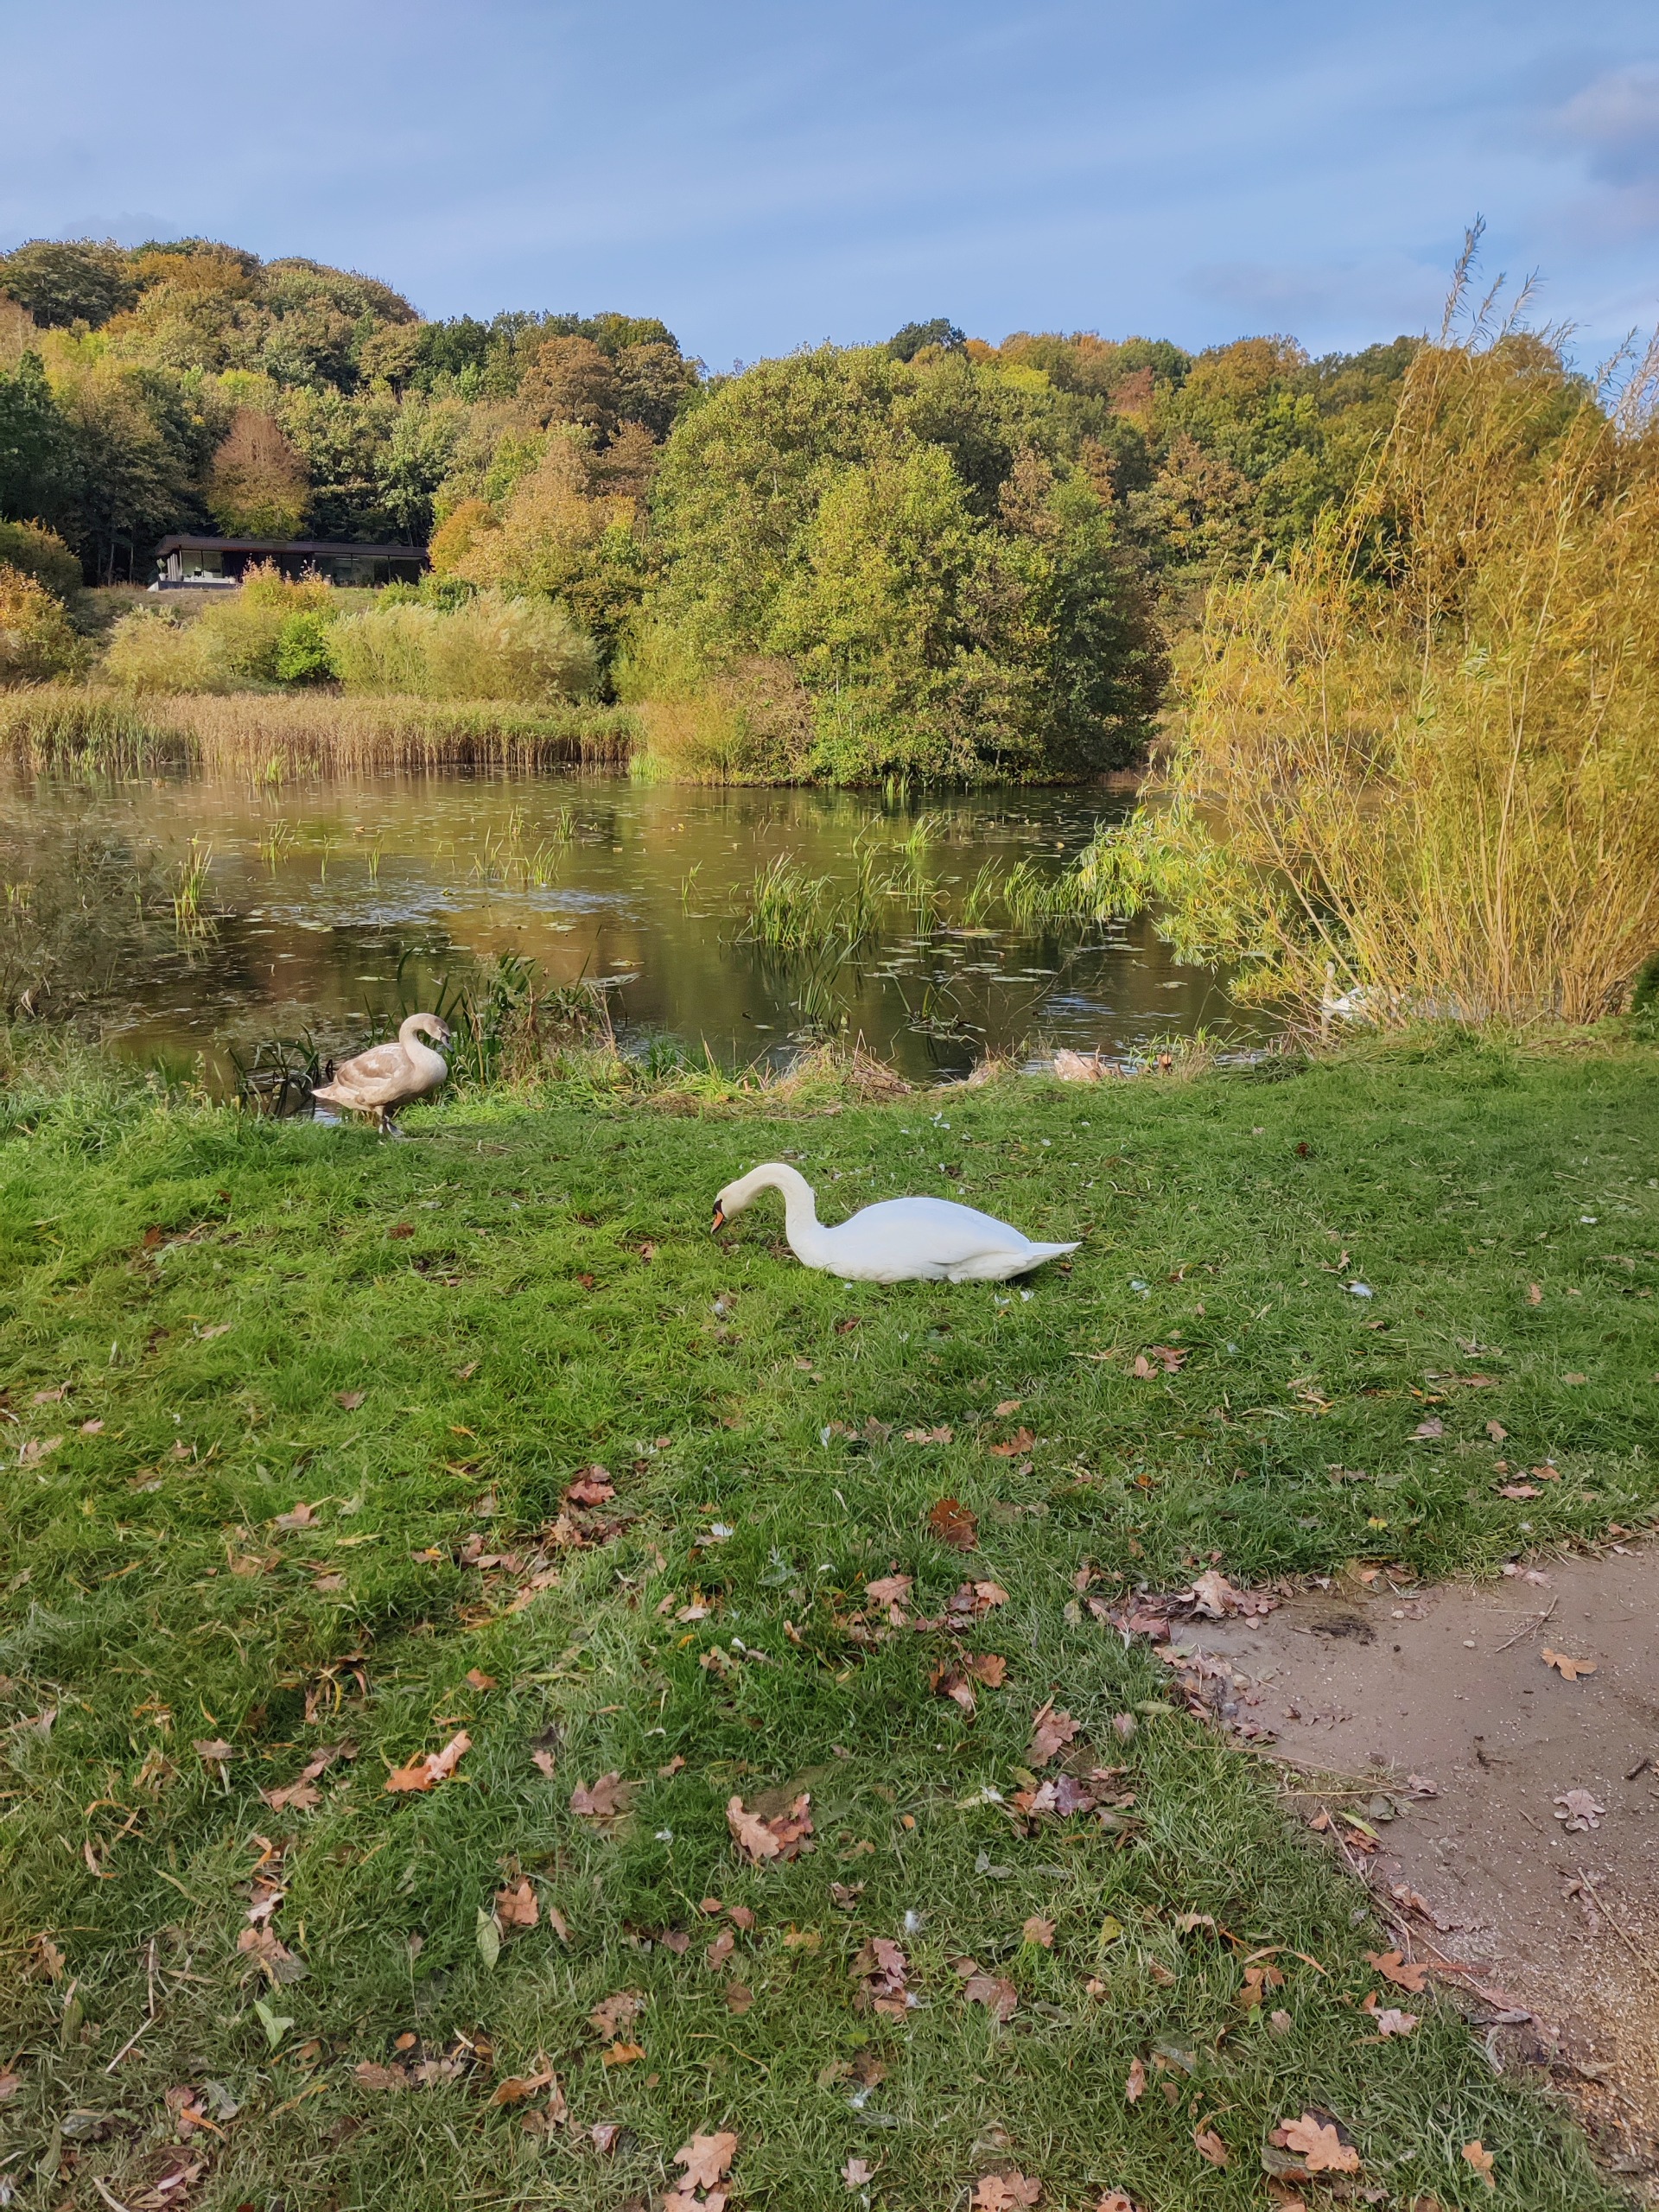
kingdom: Animalia
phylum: Chordata
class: Aves
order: Anseriformes
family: Anatidae
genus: Cygnus
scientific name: Cygnus olor
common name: Knopsvane
